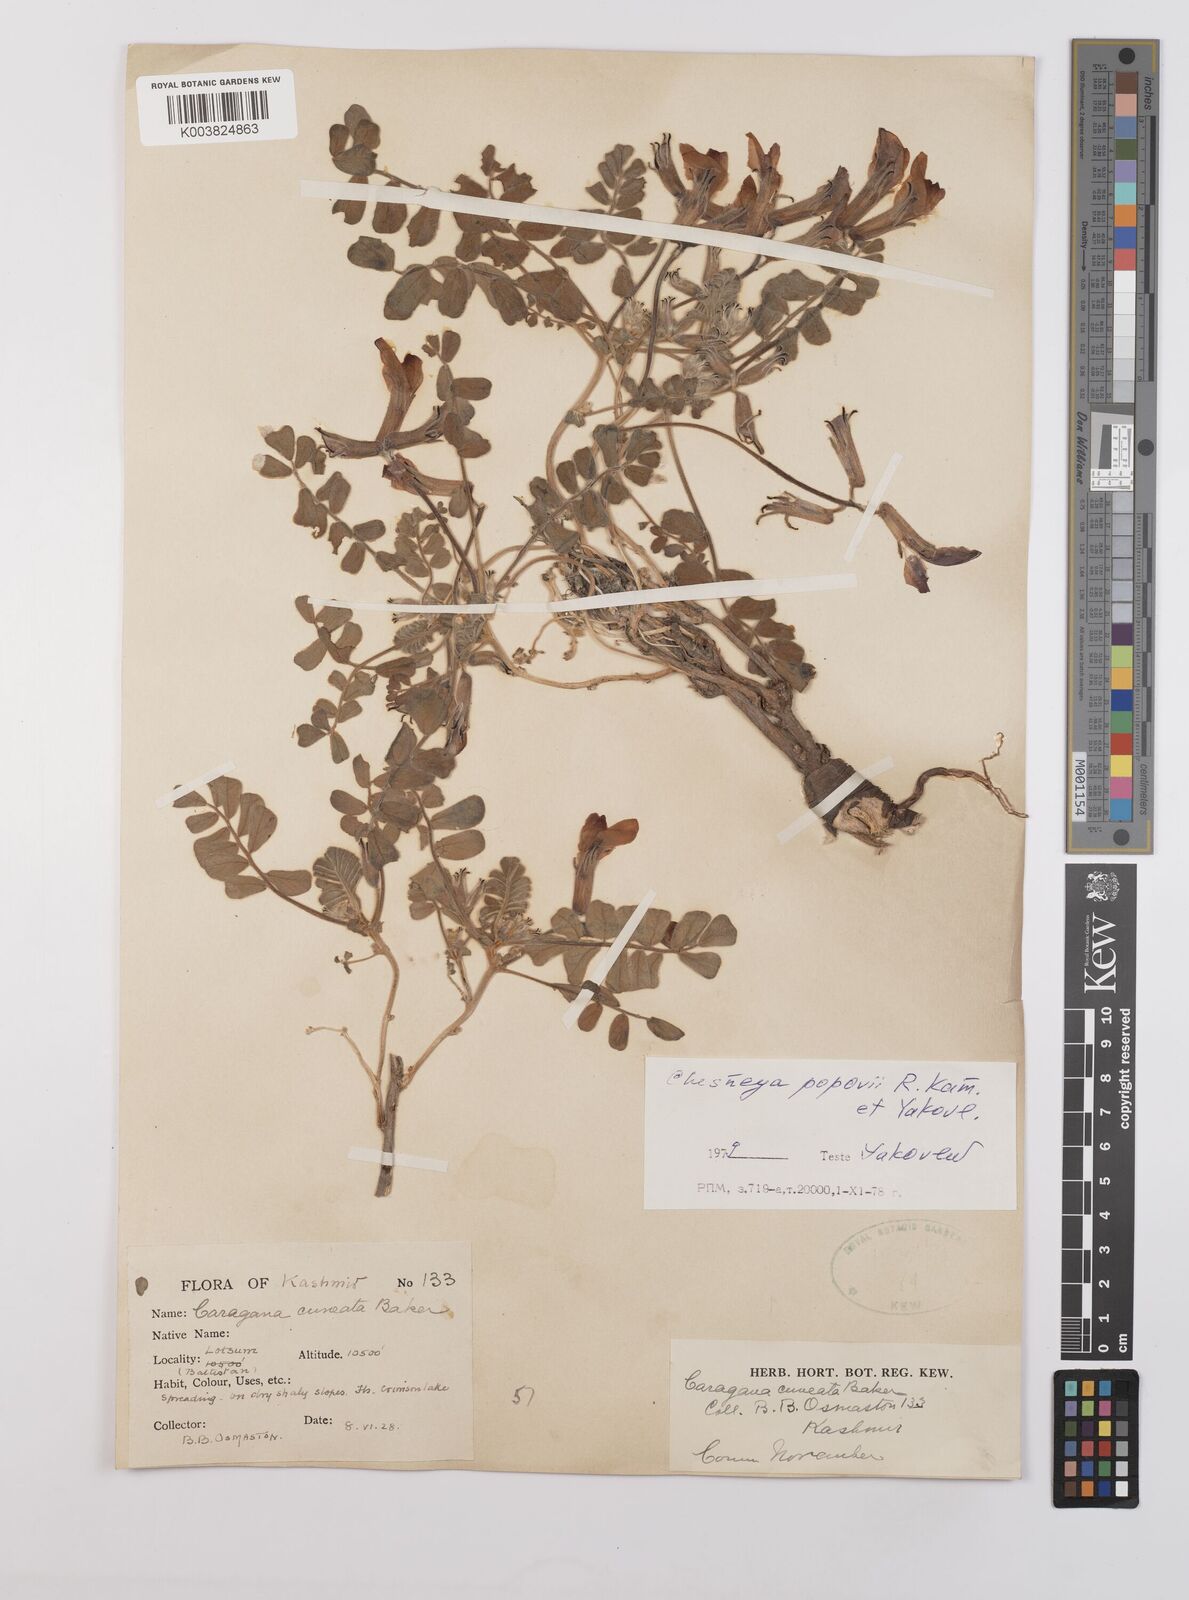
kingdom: Plantae
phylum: Tracheophyta
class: Magnoliopsida
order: Fabales
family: Fabaceae
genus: Chesneya
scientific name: Chesneya cuneata
